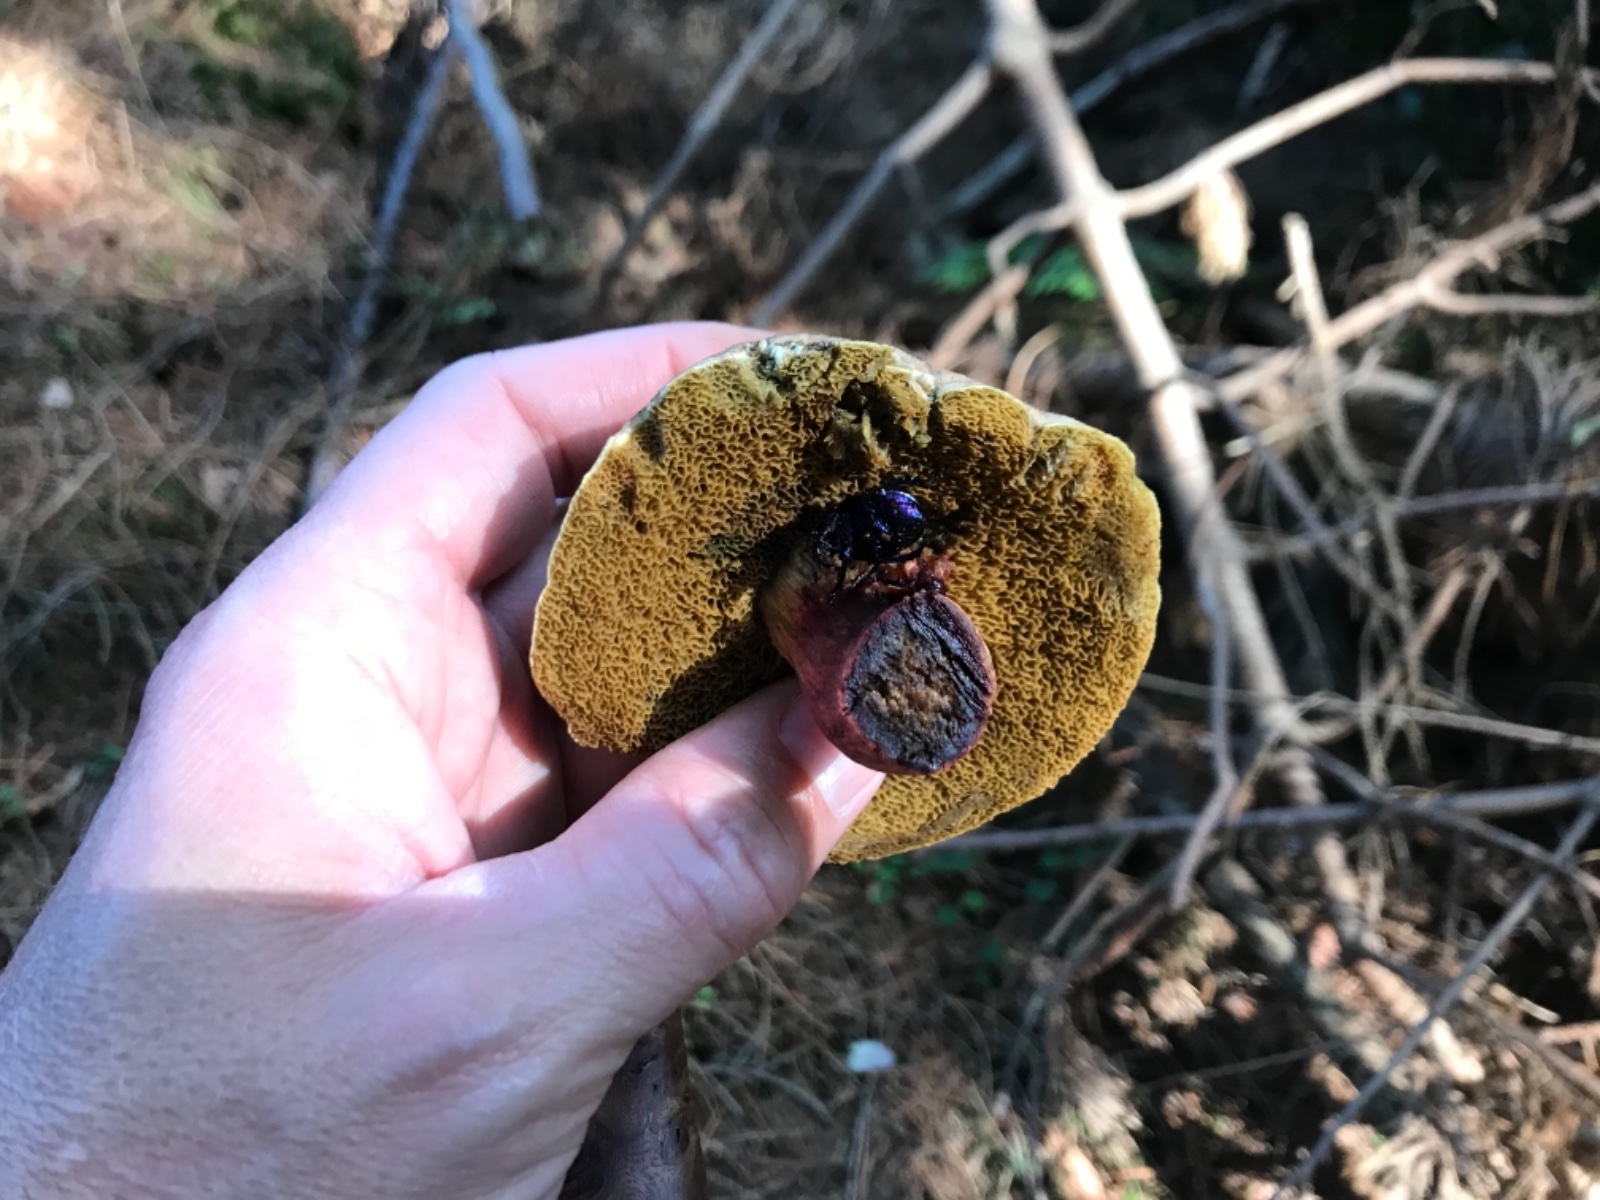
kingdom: Fungi
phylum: Basidiomycota
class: Agaricomycetes
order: Boletales
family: Boletaceae
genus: Caloboletus
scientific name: Caloboletus calopus
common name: skønfodet rørhat
